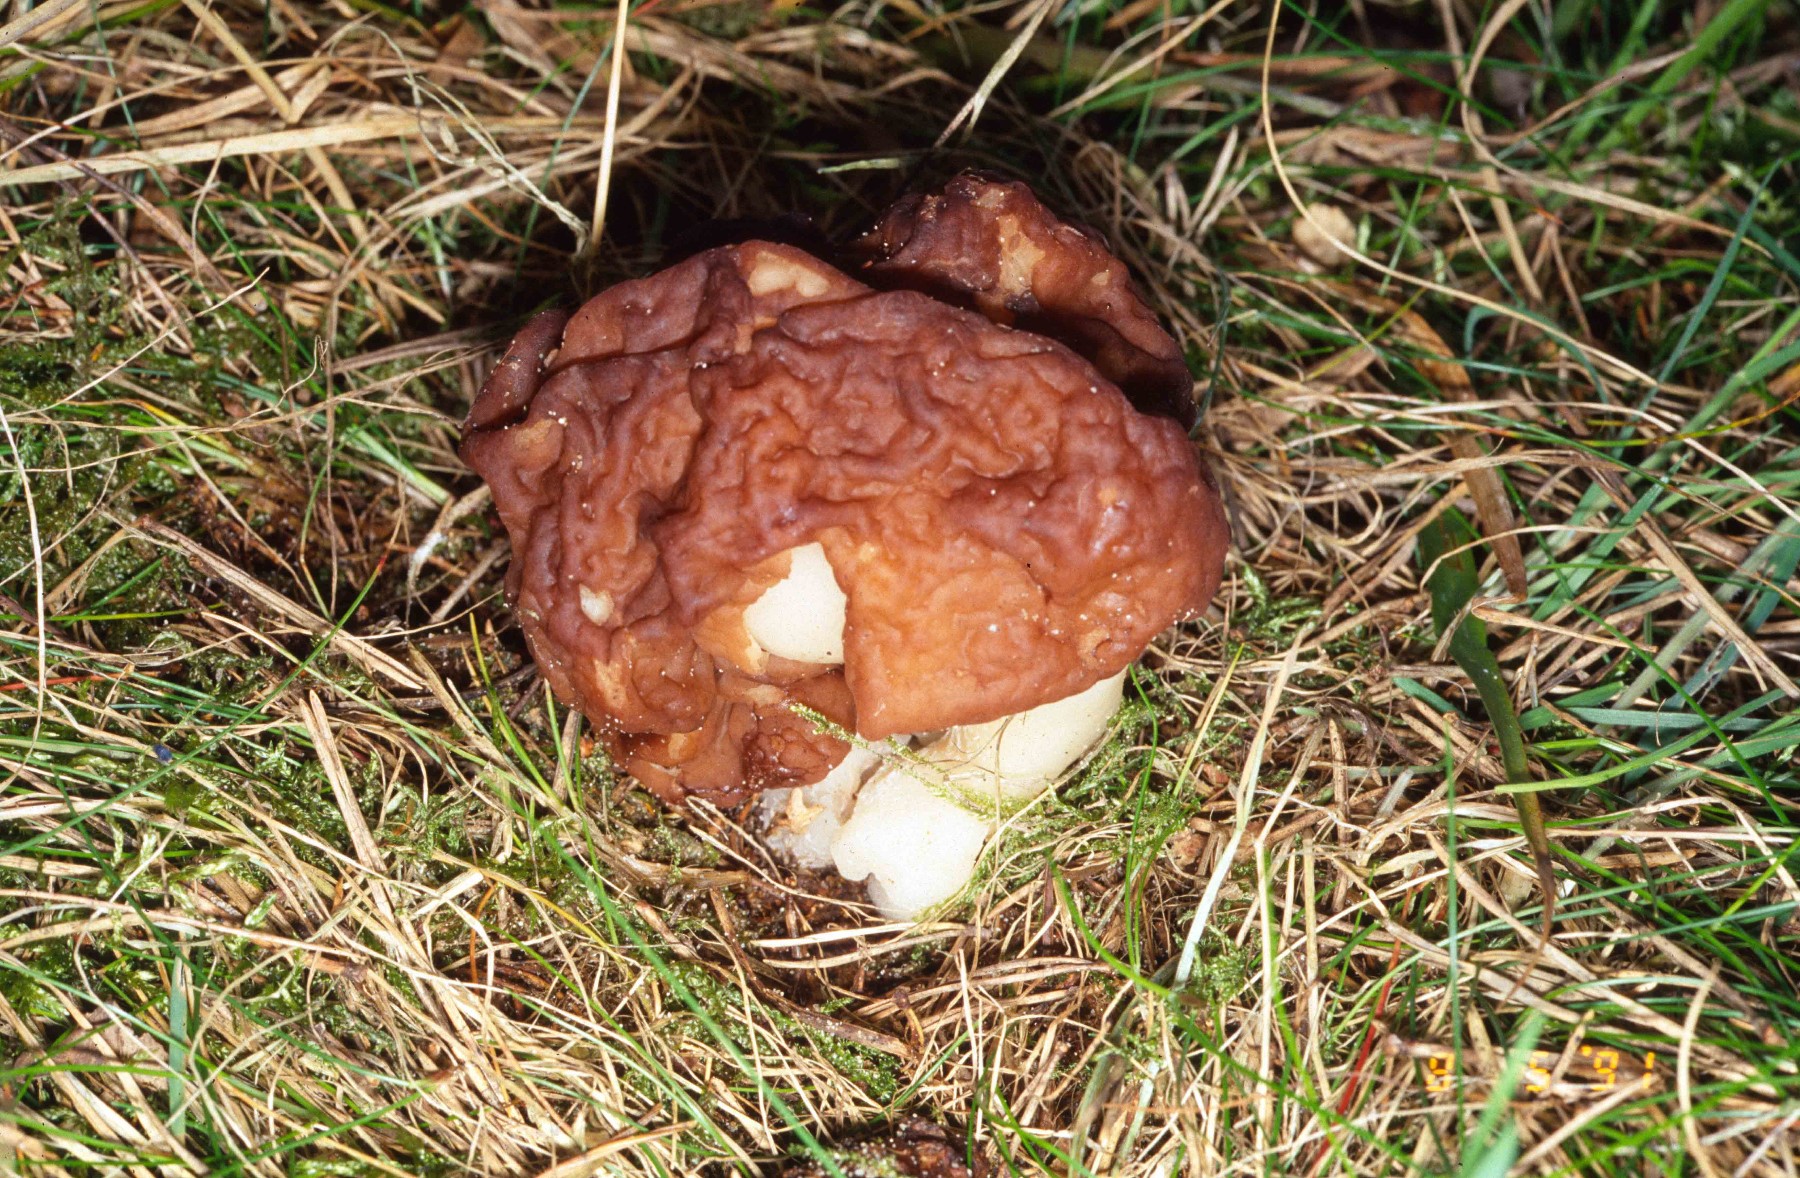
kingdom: Fungi
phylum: Ascomycota
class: Pezizomycetes
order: Pezizales
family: Discinaceae
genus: Gyromitra
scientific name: Gyromitra esculenta
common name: ægte stenmorkel
